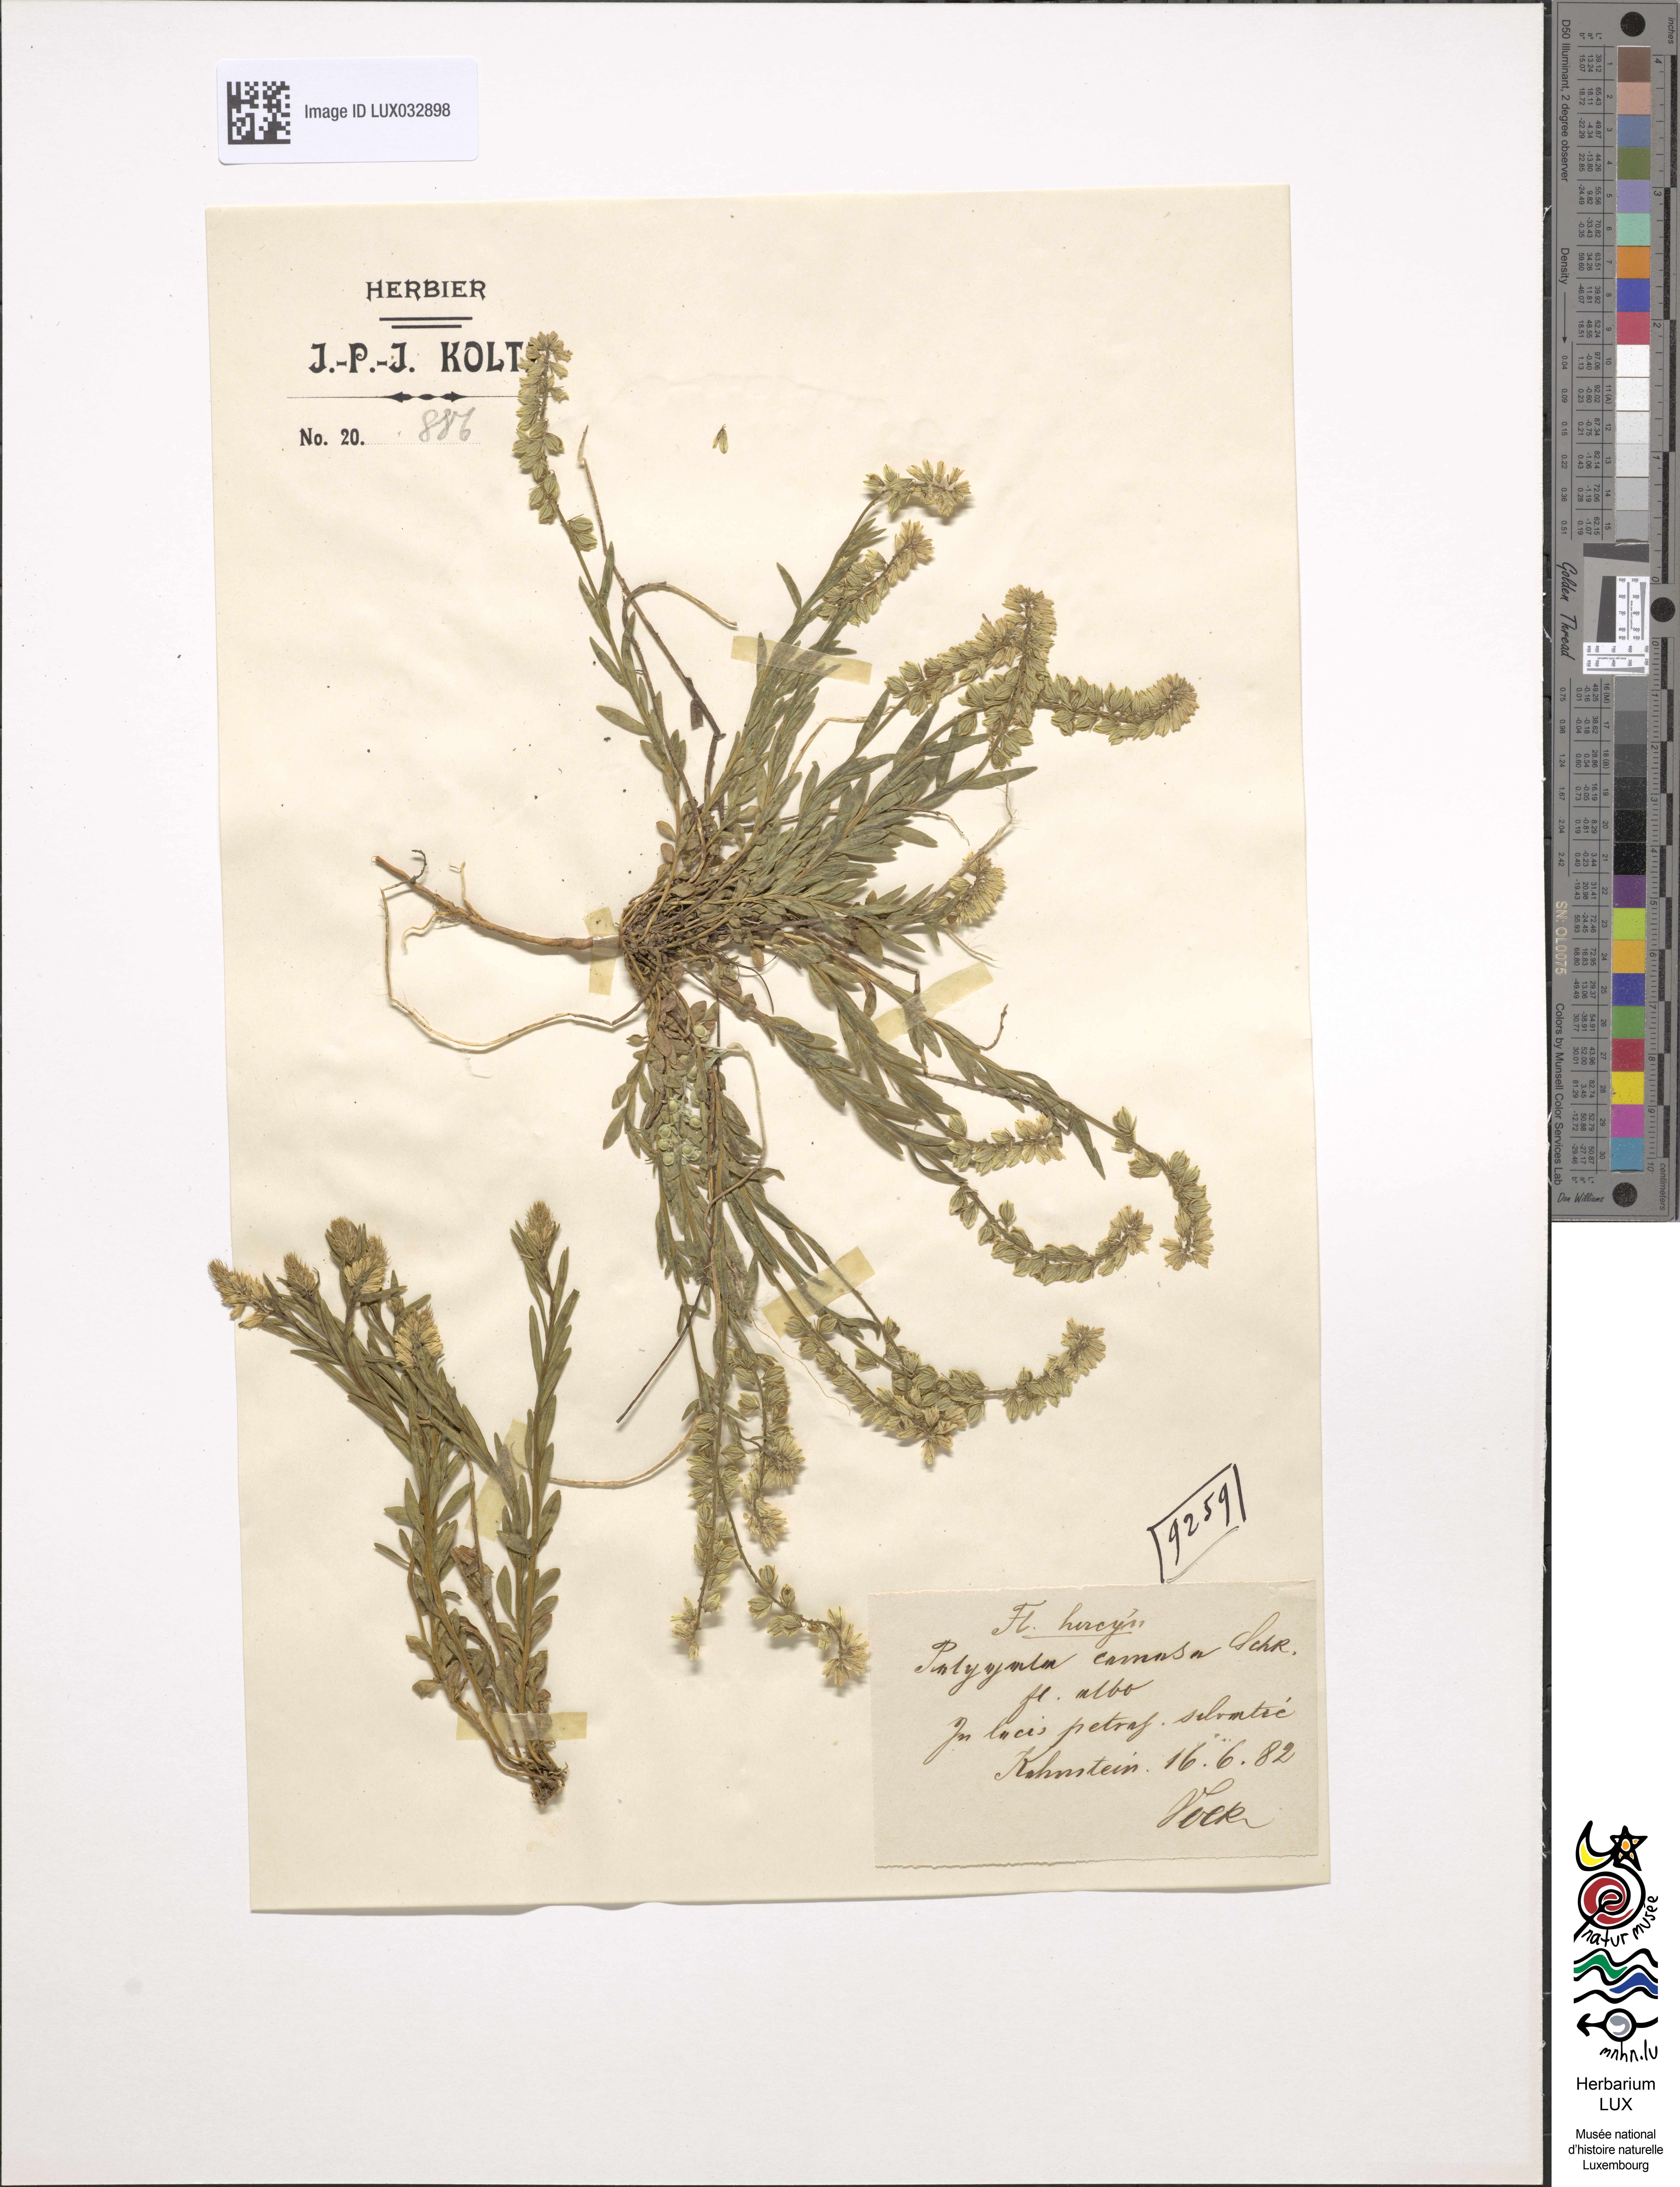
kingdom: Plantae
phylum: Tracheophyta
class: Magnoliopsida
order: Fabales
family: Polygalaceae
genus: Polygala
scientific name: Polygala comosa
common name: Tufted milkwort
